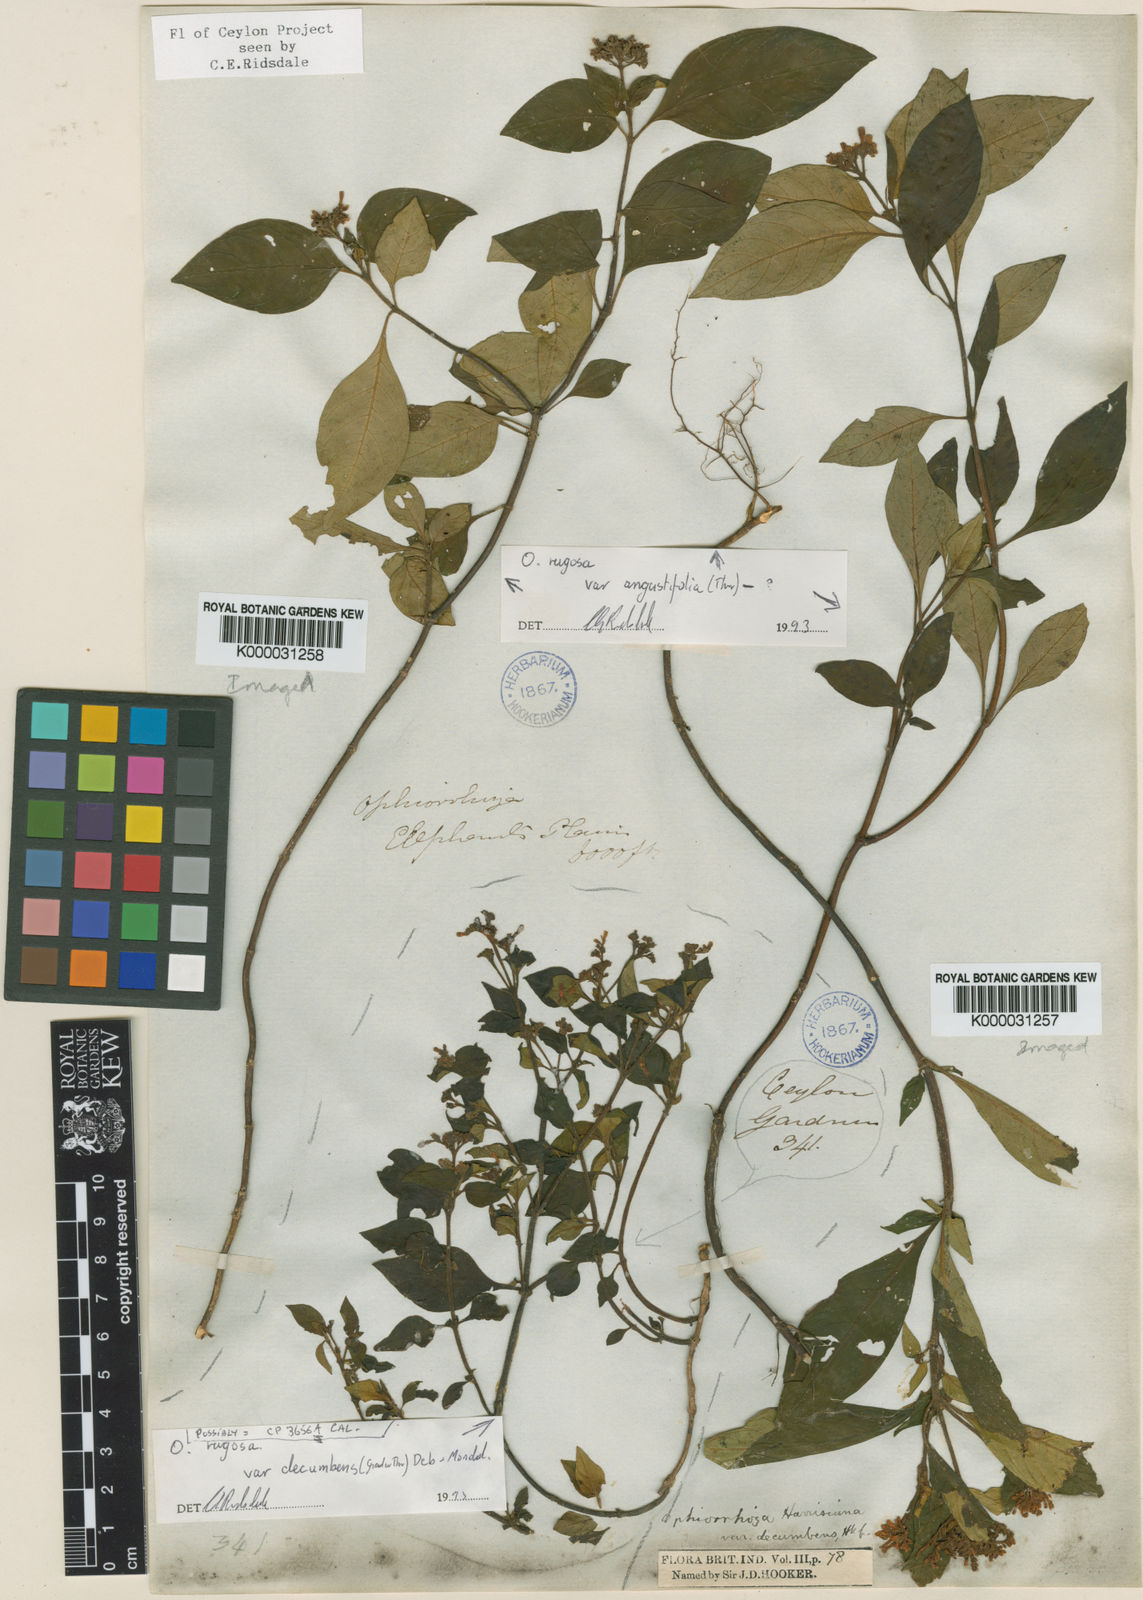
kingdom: Plantae
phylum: Tracheophyta
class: Magnoliopsida
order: Gentianales
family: Rubiaceae
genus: Ophiorrhiza
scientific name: Ophiorrhiza rugosa
